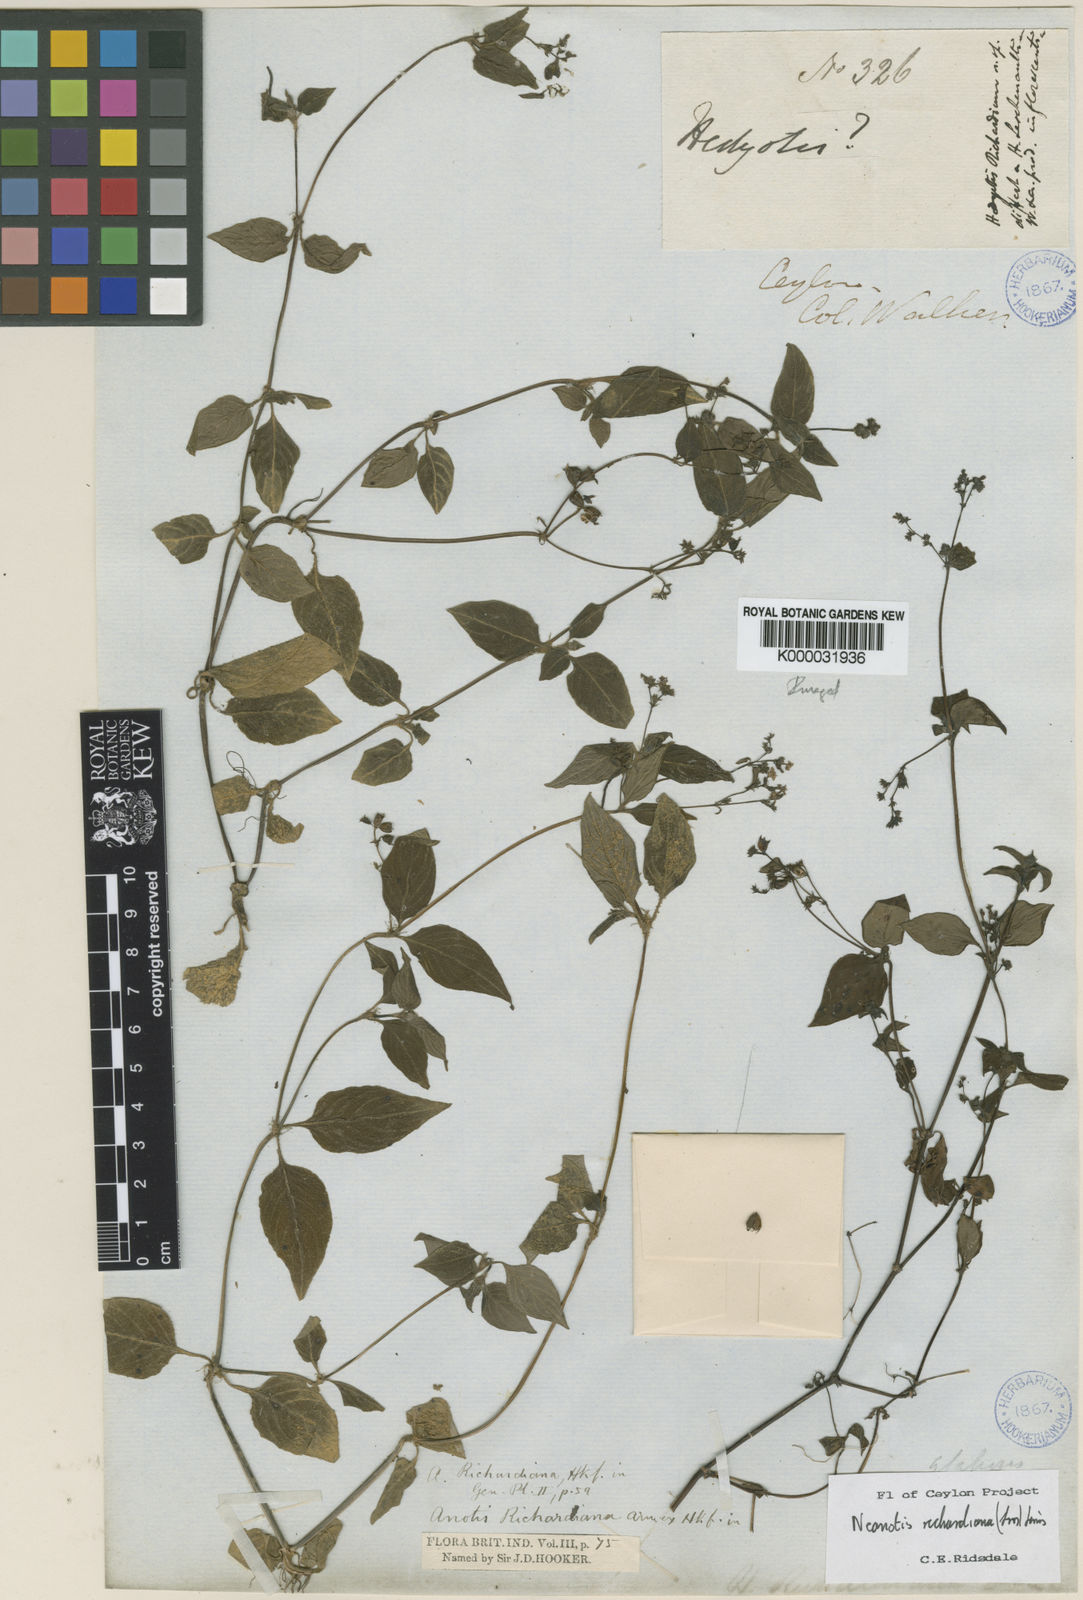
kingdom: Plantae
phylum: Tracheophyta
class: Magnoliopsida
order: Gentianales
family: Rubiaceae
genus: Neanotis
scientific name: Neanotis richardiana
